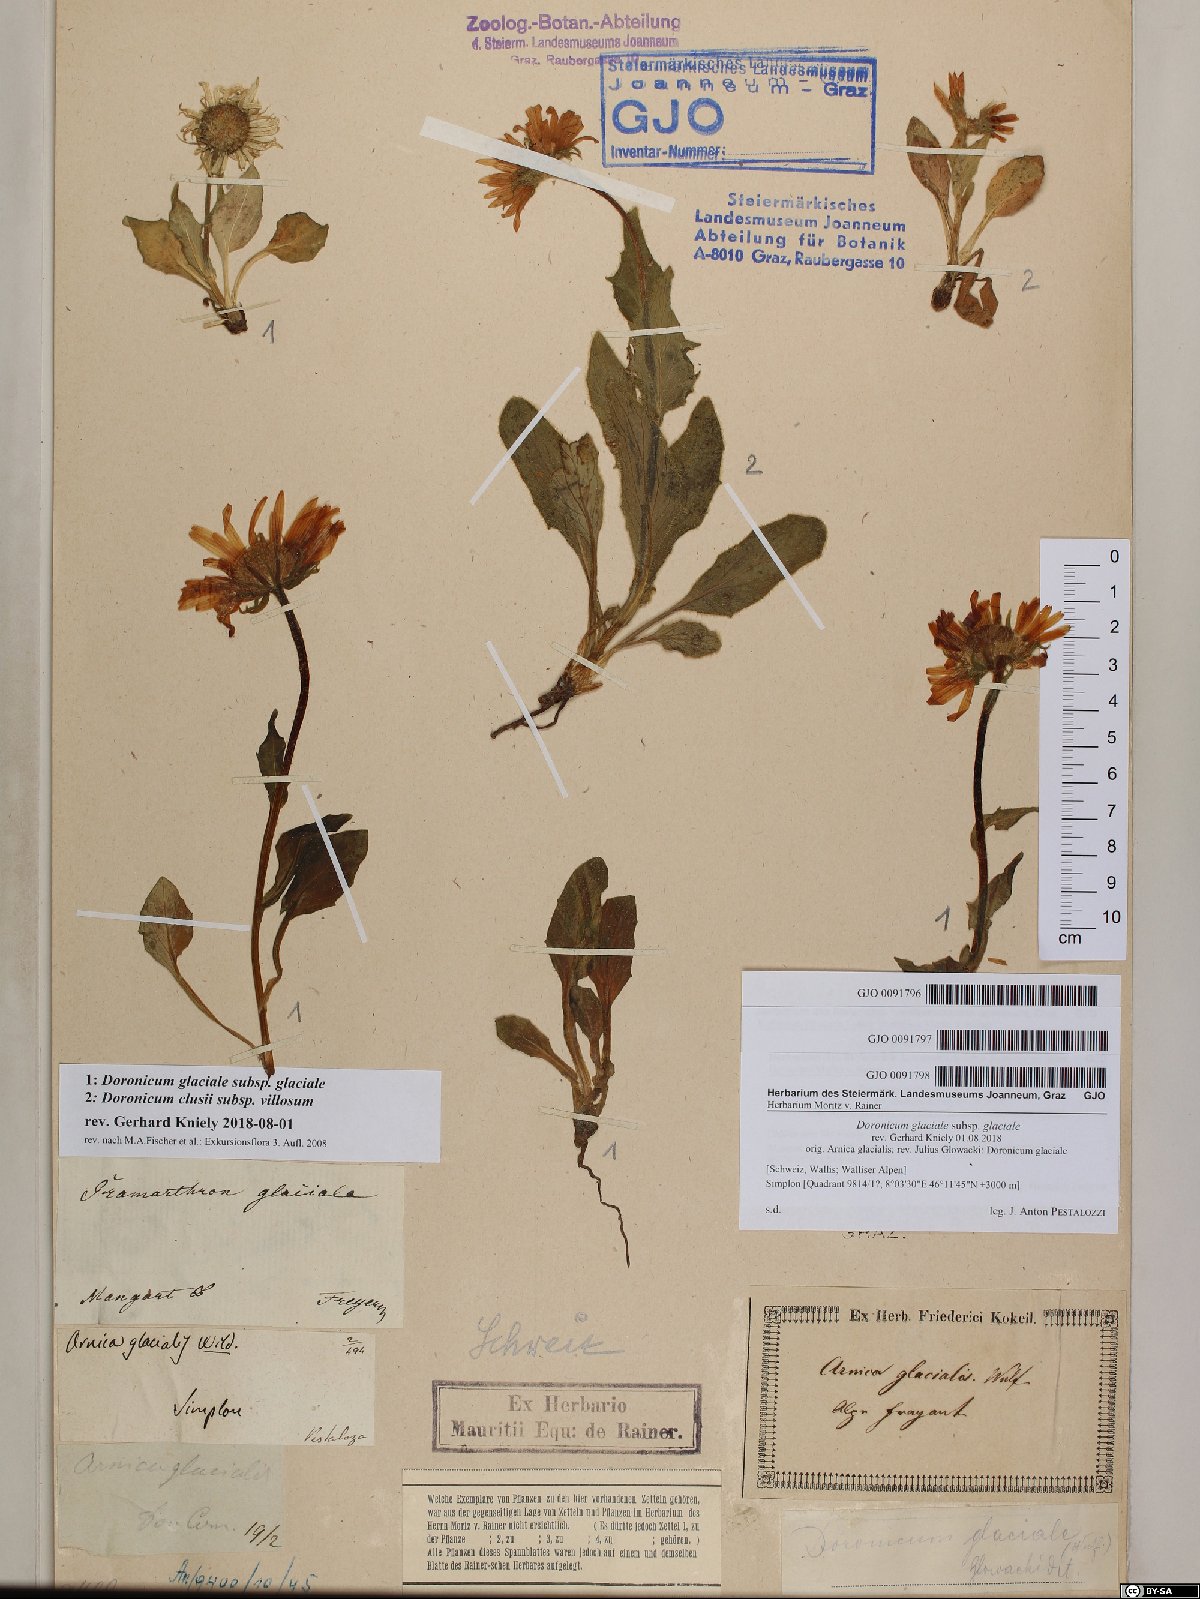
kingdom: Plantae
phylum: Tracheophyta
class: Magnoliopsida
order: Asterales
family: Asteraceae
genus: Doronicum
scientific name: Doronicum glaciale
